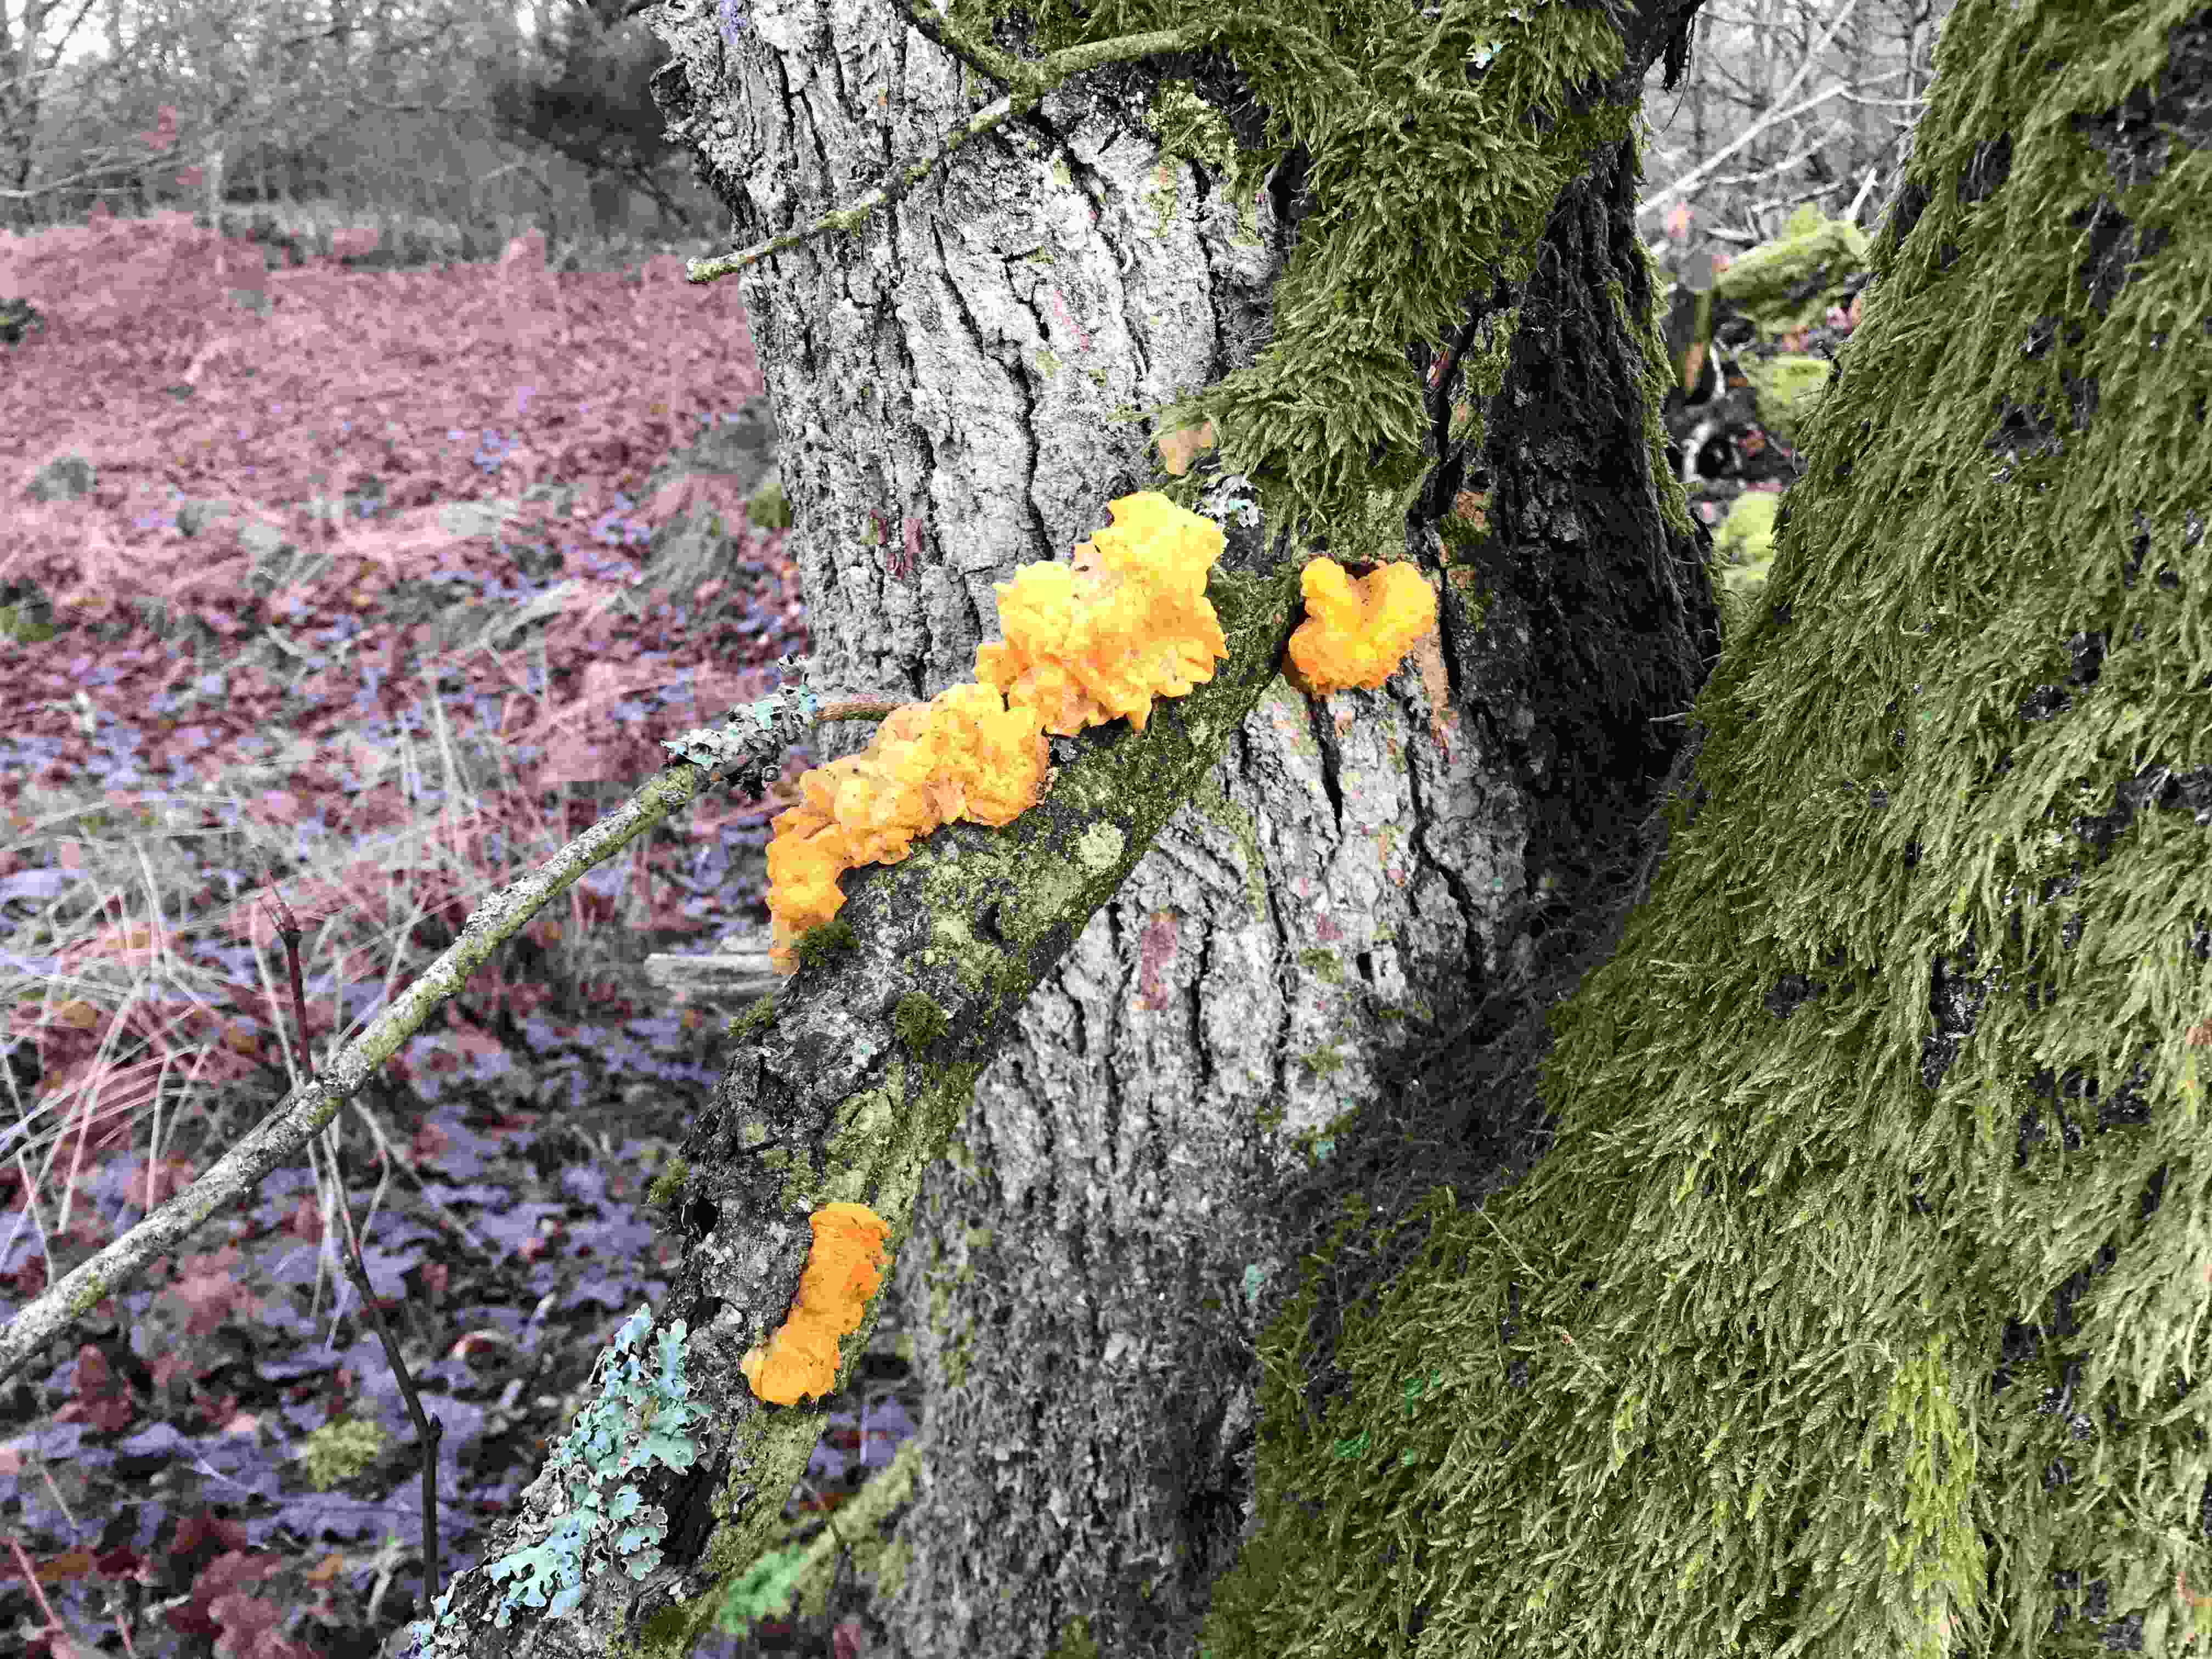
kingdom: Fungi
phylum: Basidiomycota
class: Tremellomycetes
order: Tremellales
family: Tremellaceae
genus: Tremella
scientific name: Tremella mesenterica
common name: gul bævresvamp
